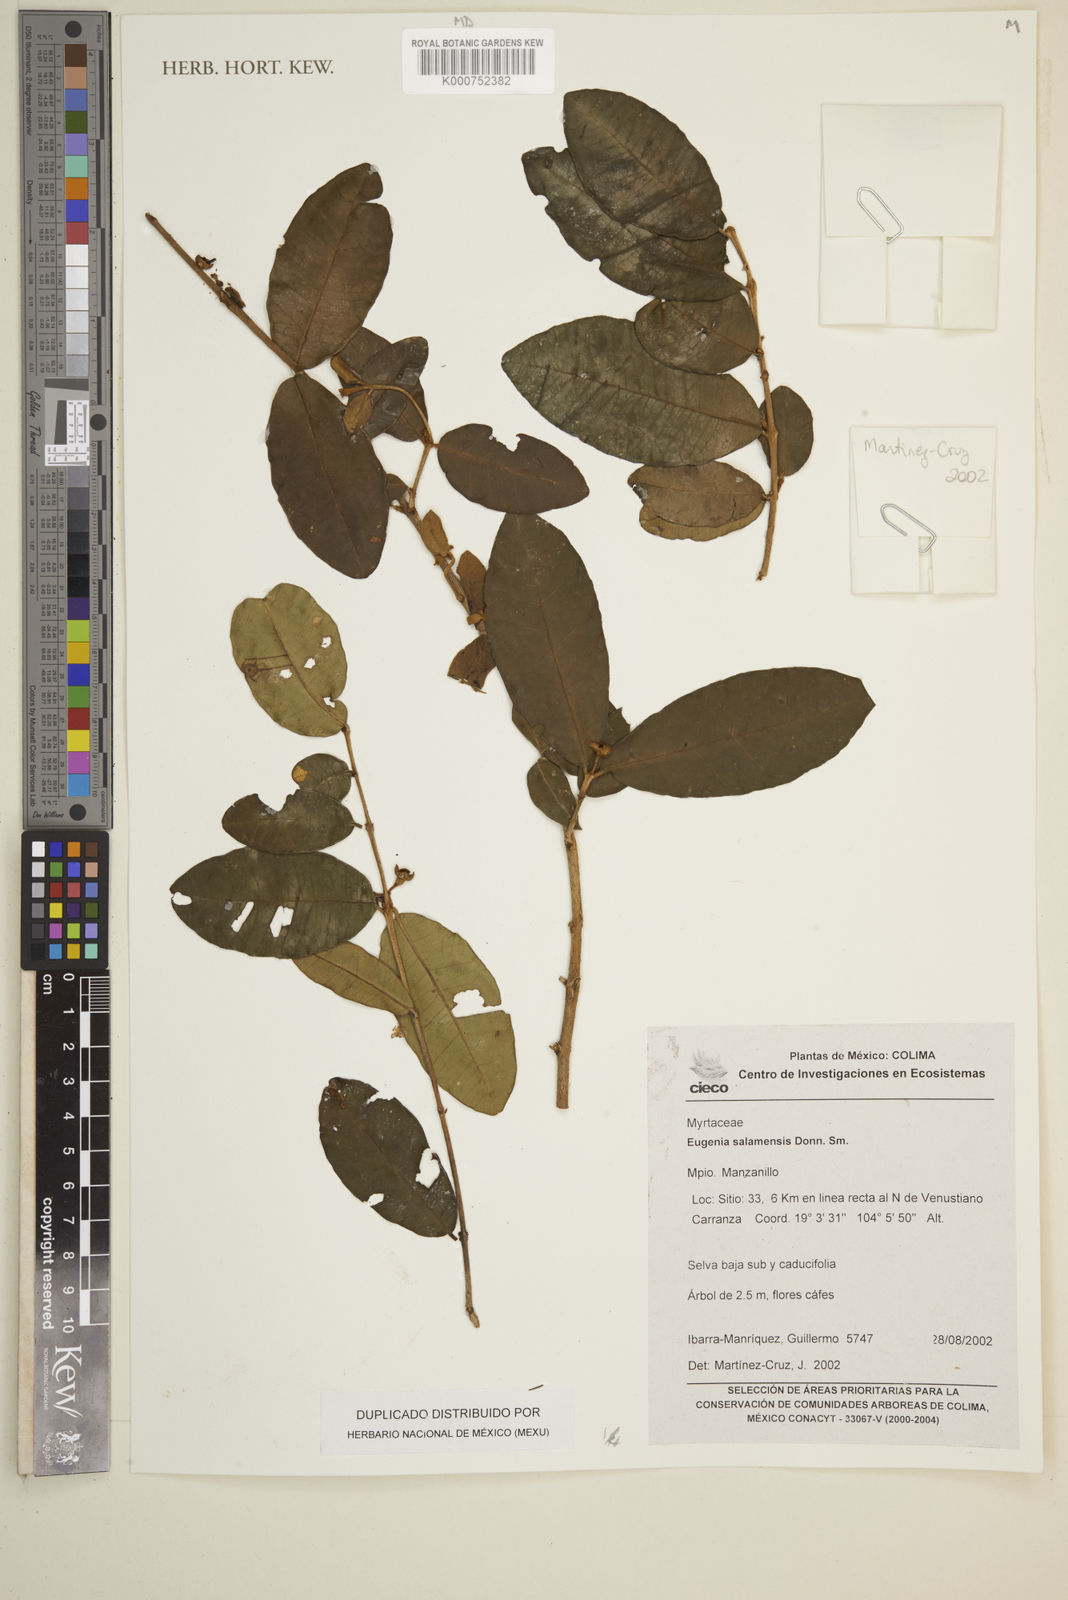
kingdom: Plantae
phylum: Tracheophyta
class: Magnoliopsida
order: Myrtales
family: Myrtaceae
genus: Eugenia
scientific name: Eugenia salamensis
